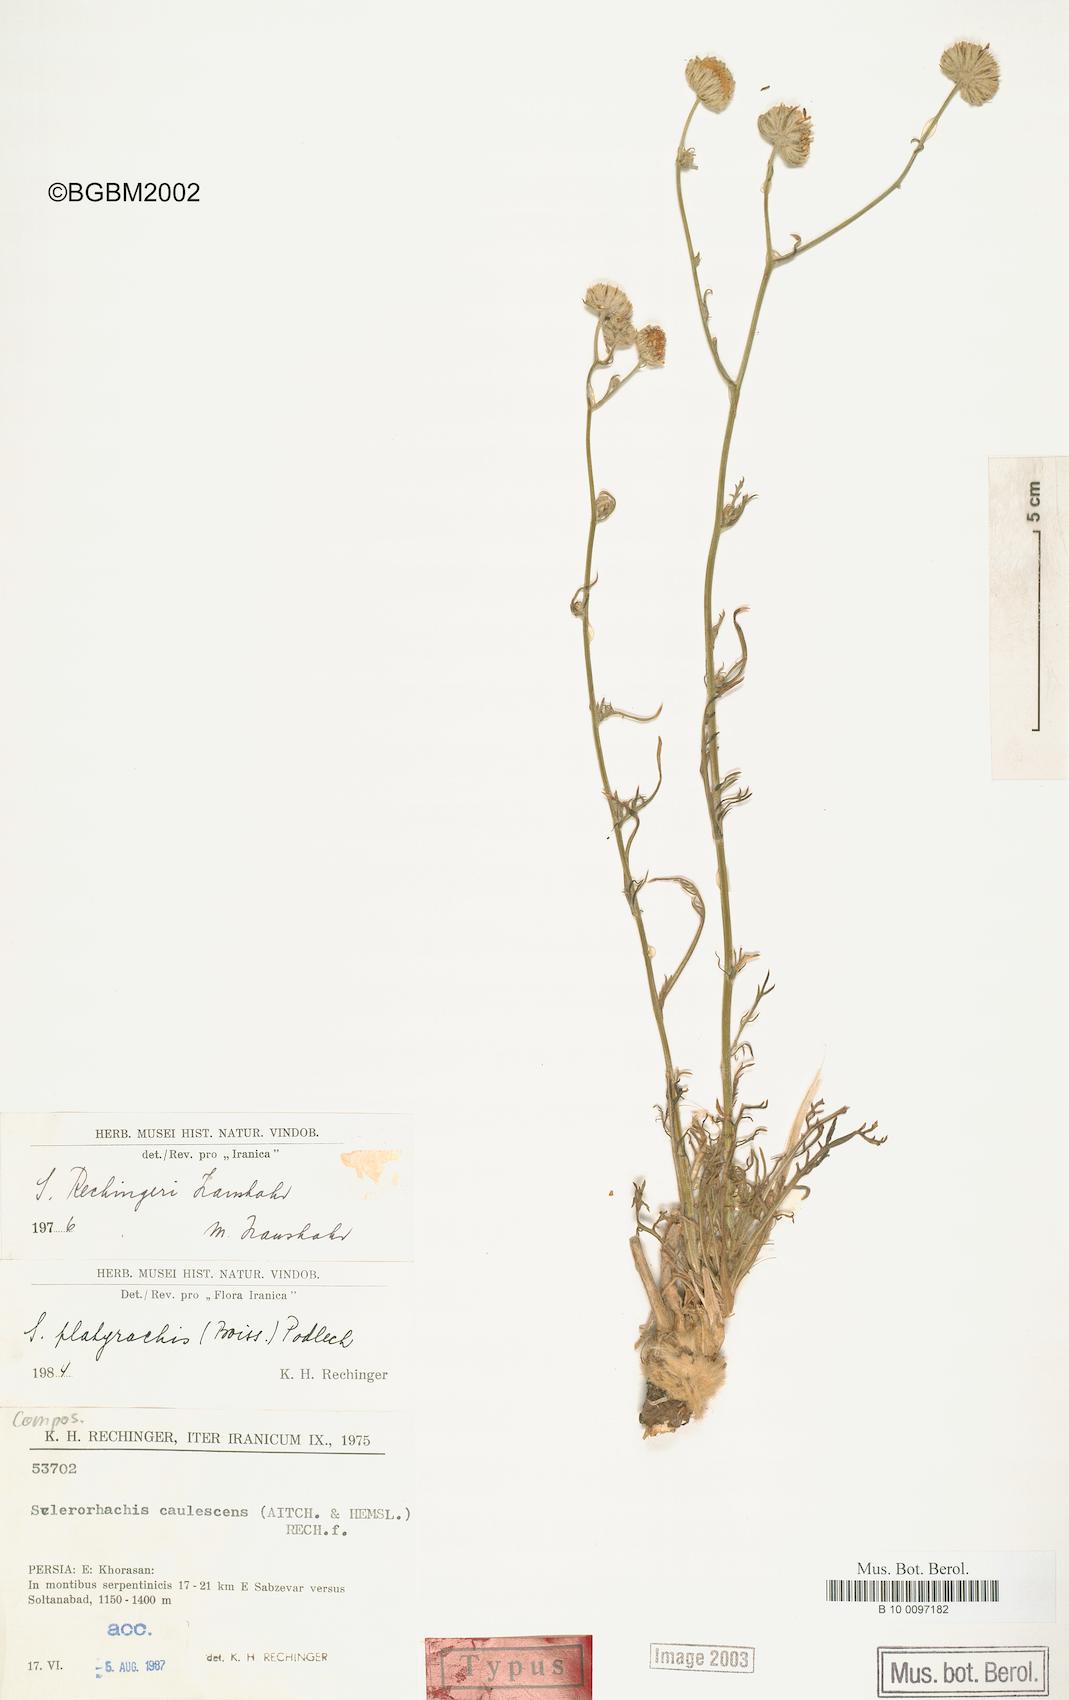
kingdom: Plantae
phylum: Tracheophyta
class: Magnoliopsida
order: Asterales
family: Asteraceae
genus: Sclerorhachis
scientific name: Sclerorhachis platyrachis
